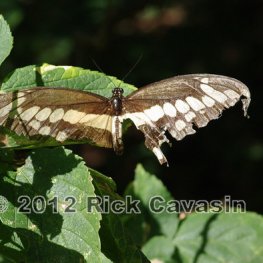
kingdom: Animalia
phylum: Arthropoda
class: Insecta
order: Lepidoptera
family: Papilionidae
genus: Papilio
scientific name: Papilio cresphontes
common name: Eastern Giant Swallowtail
